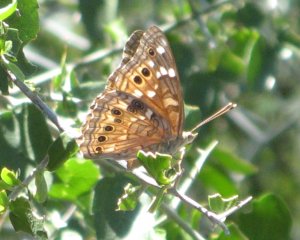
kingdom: Animalia
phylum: Arthropoda
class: Insecta
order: Lepidoptera
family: Nymphalidae
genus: Asterocampa
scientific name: Asterocampa leilia
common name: Empress Leilia
